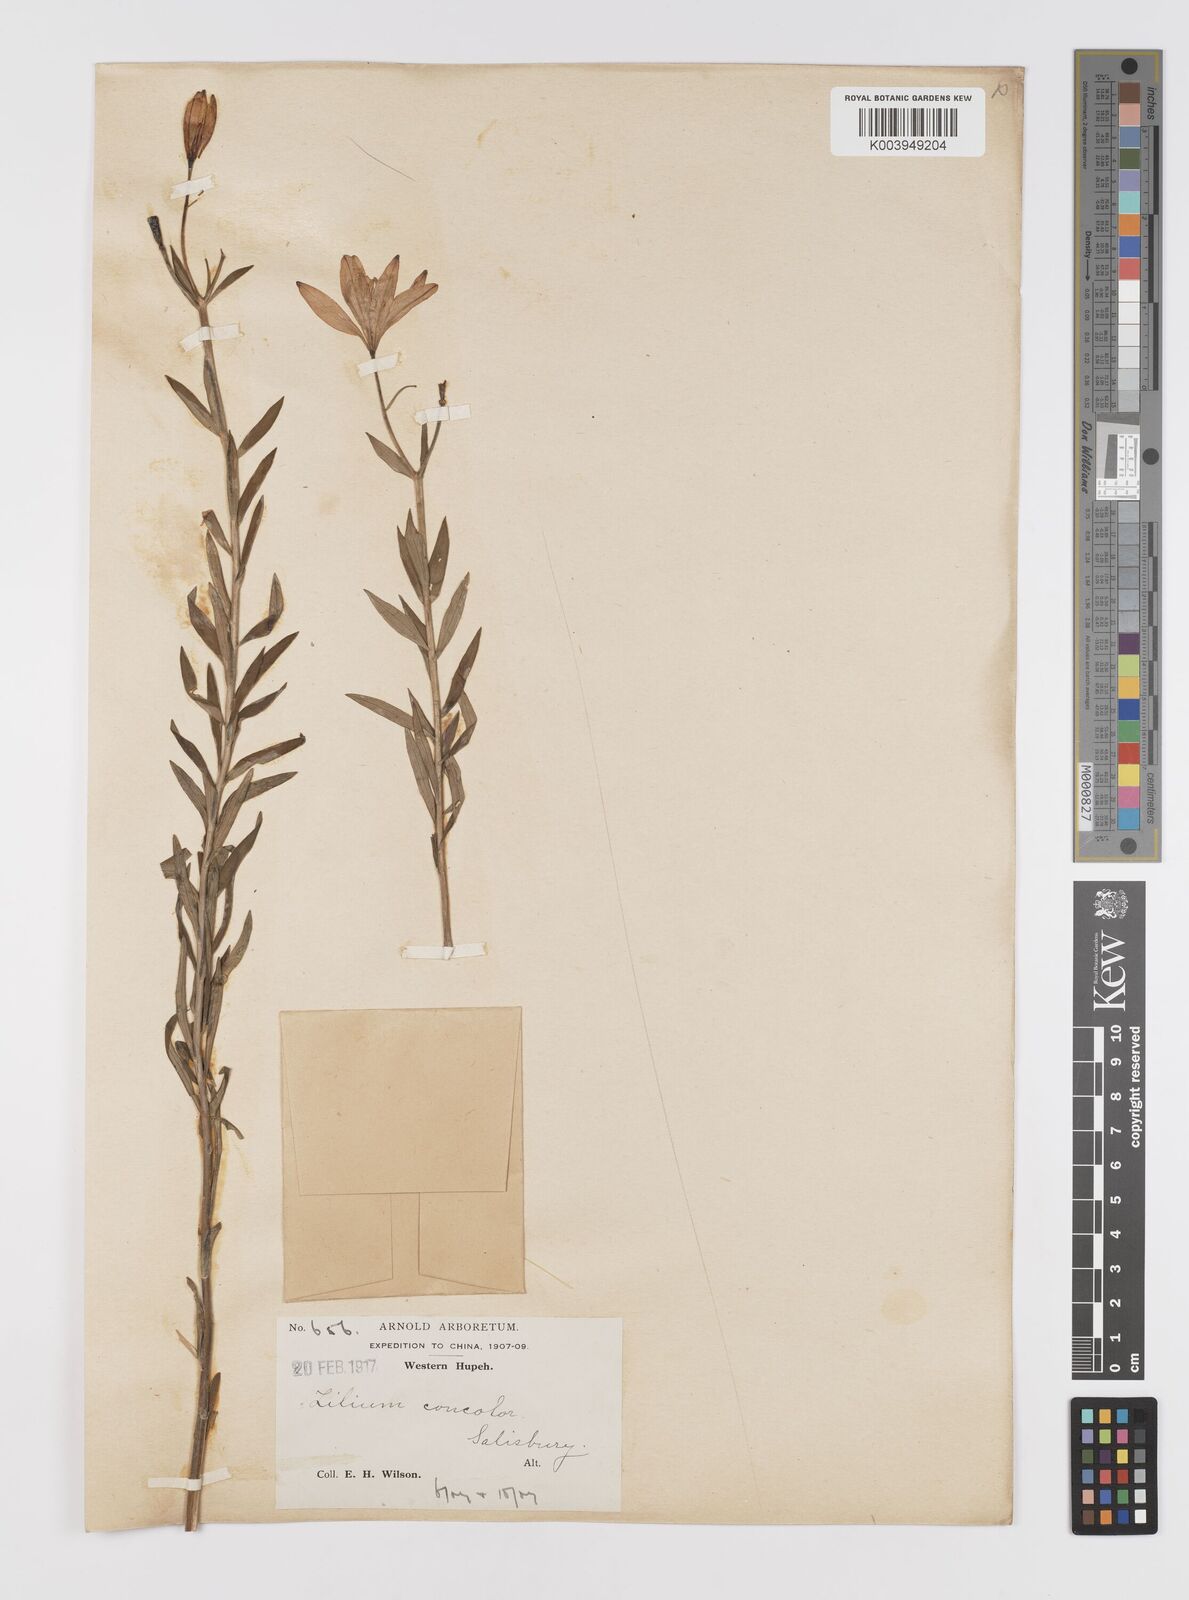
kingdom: Plantae
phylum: Tracheophyta
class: Liliopsida
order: Liliales
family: Liliaceae
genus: Lilium
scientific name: Lilium concolor
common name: Morning-star lily
